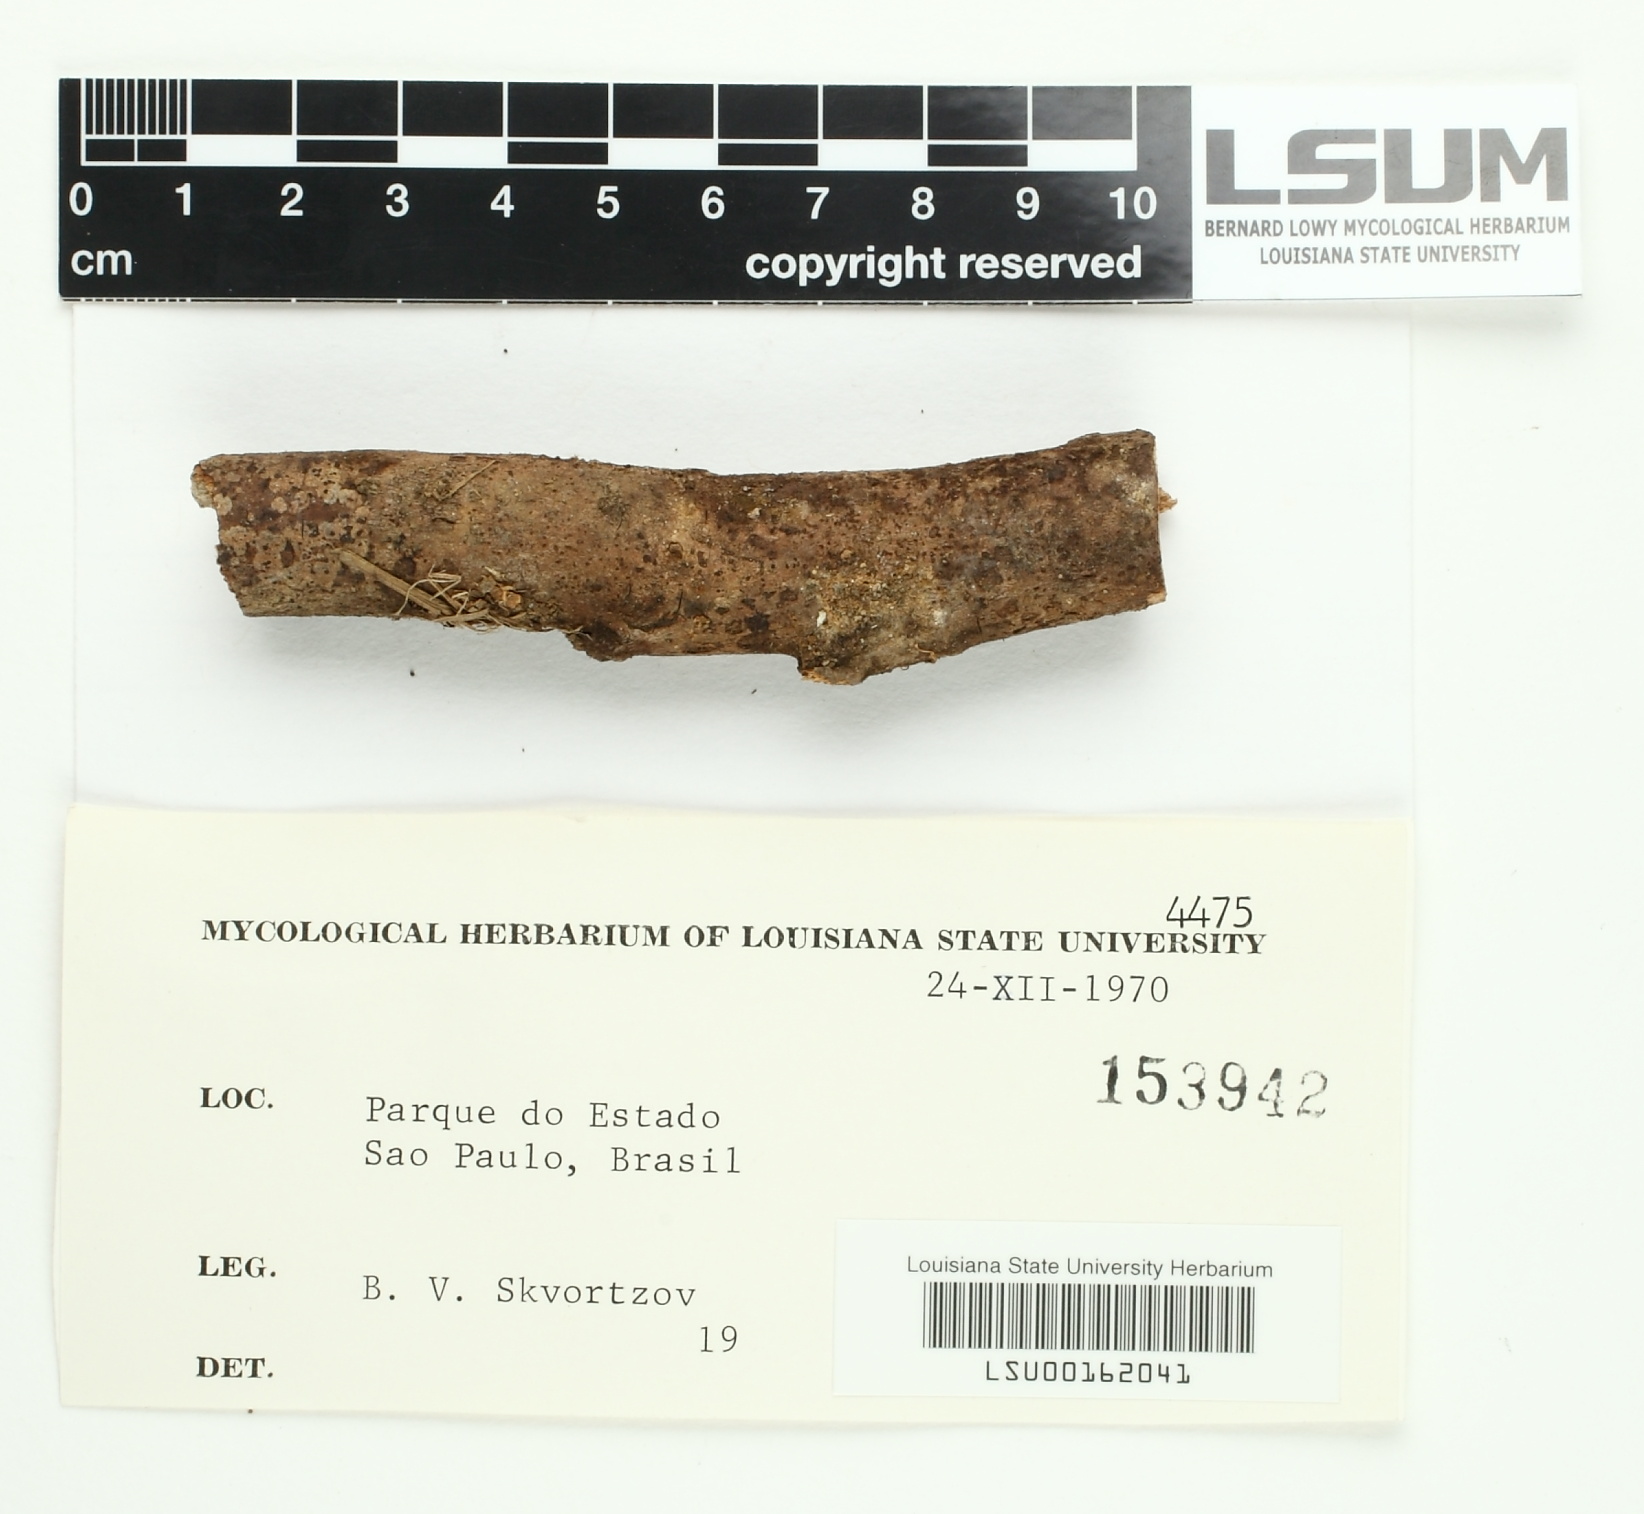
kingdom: Fungi
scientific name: Fungi
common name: Fungi
